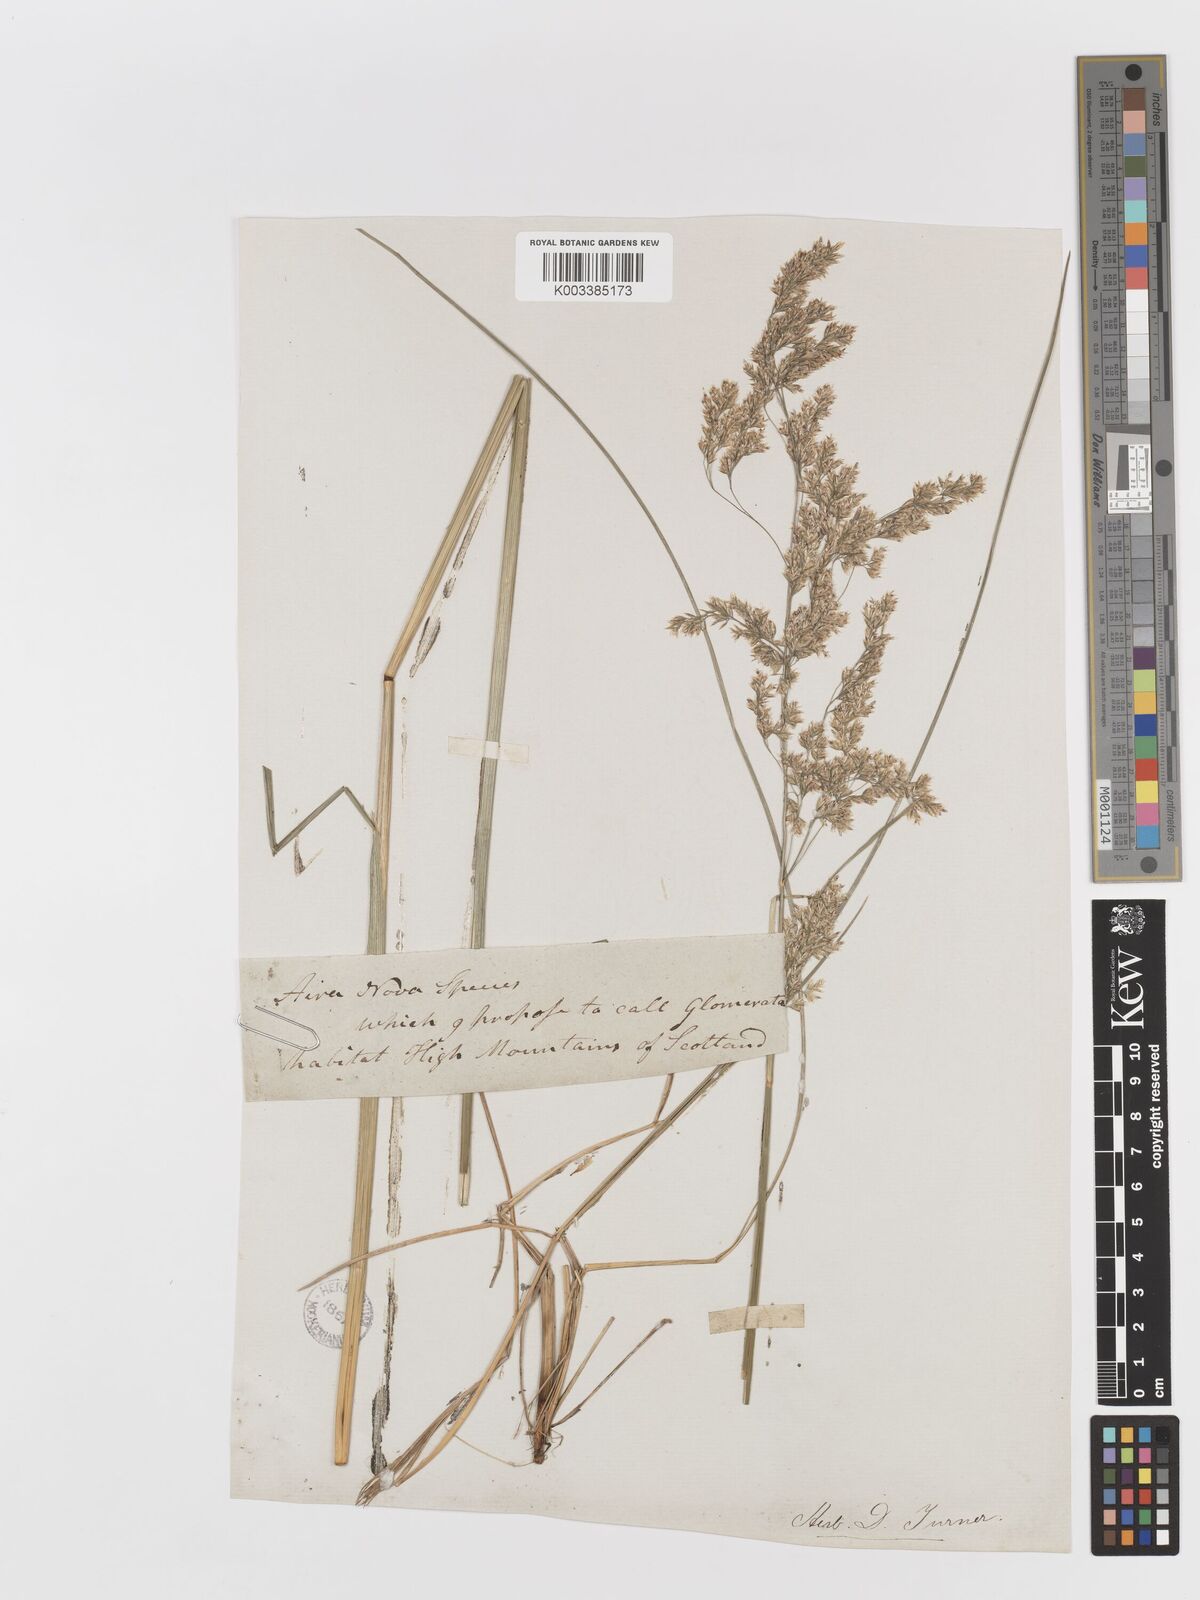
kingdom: Plantae
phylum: Tracheophyta
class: Liliopsida
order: Poales
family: Poaceae
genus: Deschampsia
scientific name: Deschampsia cespitosa
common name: Tufted hair-grass
